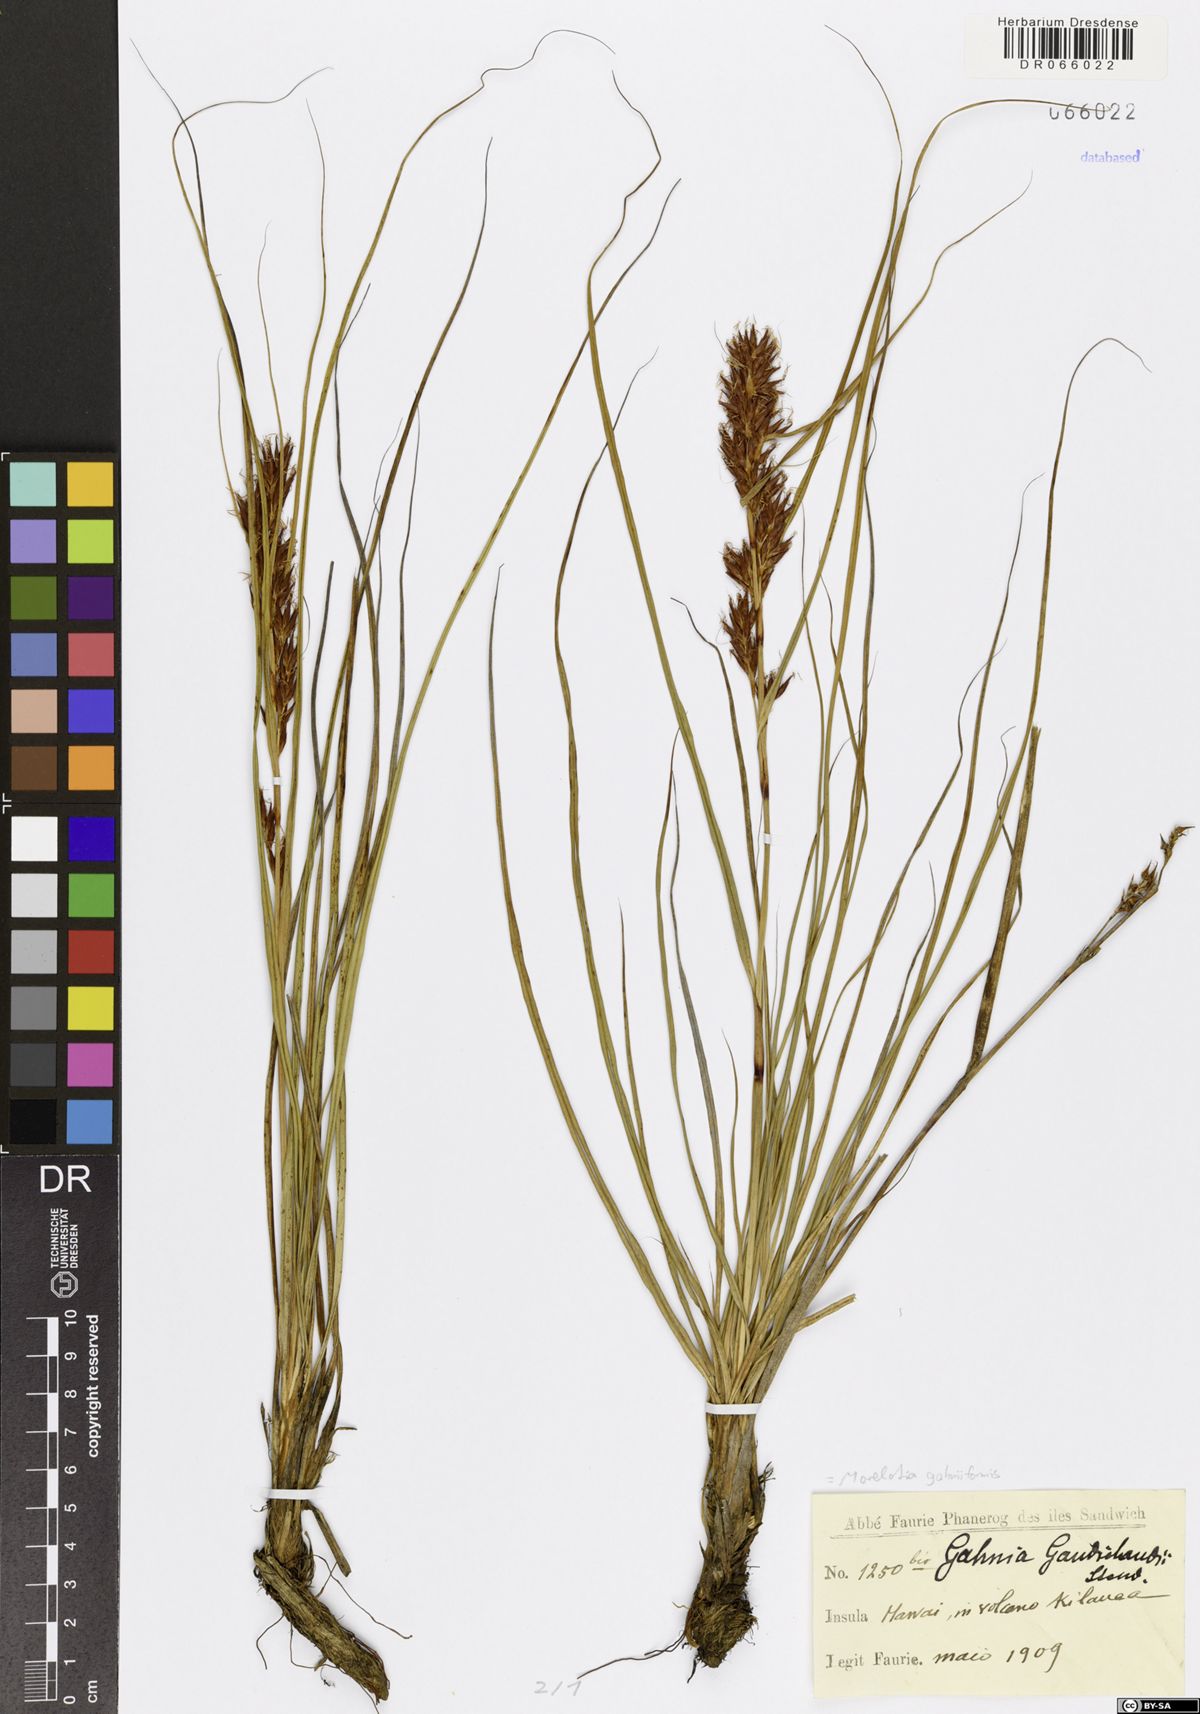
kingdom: Plantae
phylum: Tracheophyta
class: Liliopsida
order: Poales
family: Cyperaceae
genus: Morelotia
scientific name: Morelotia gahniiformis
